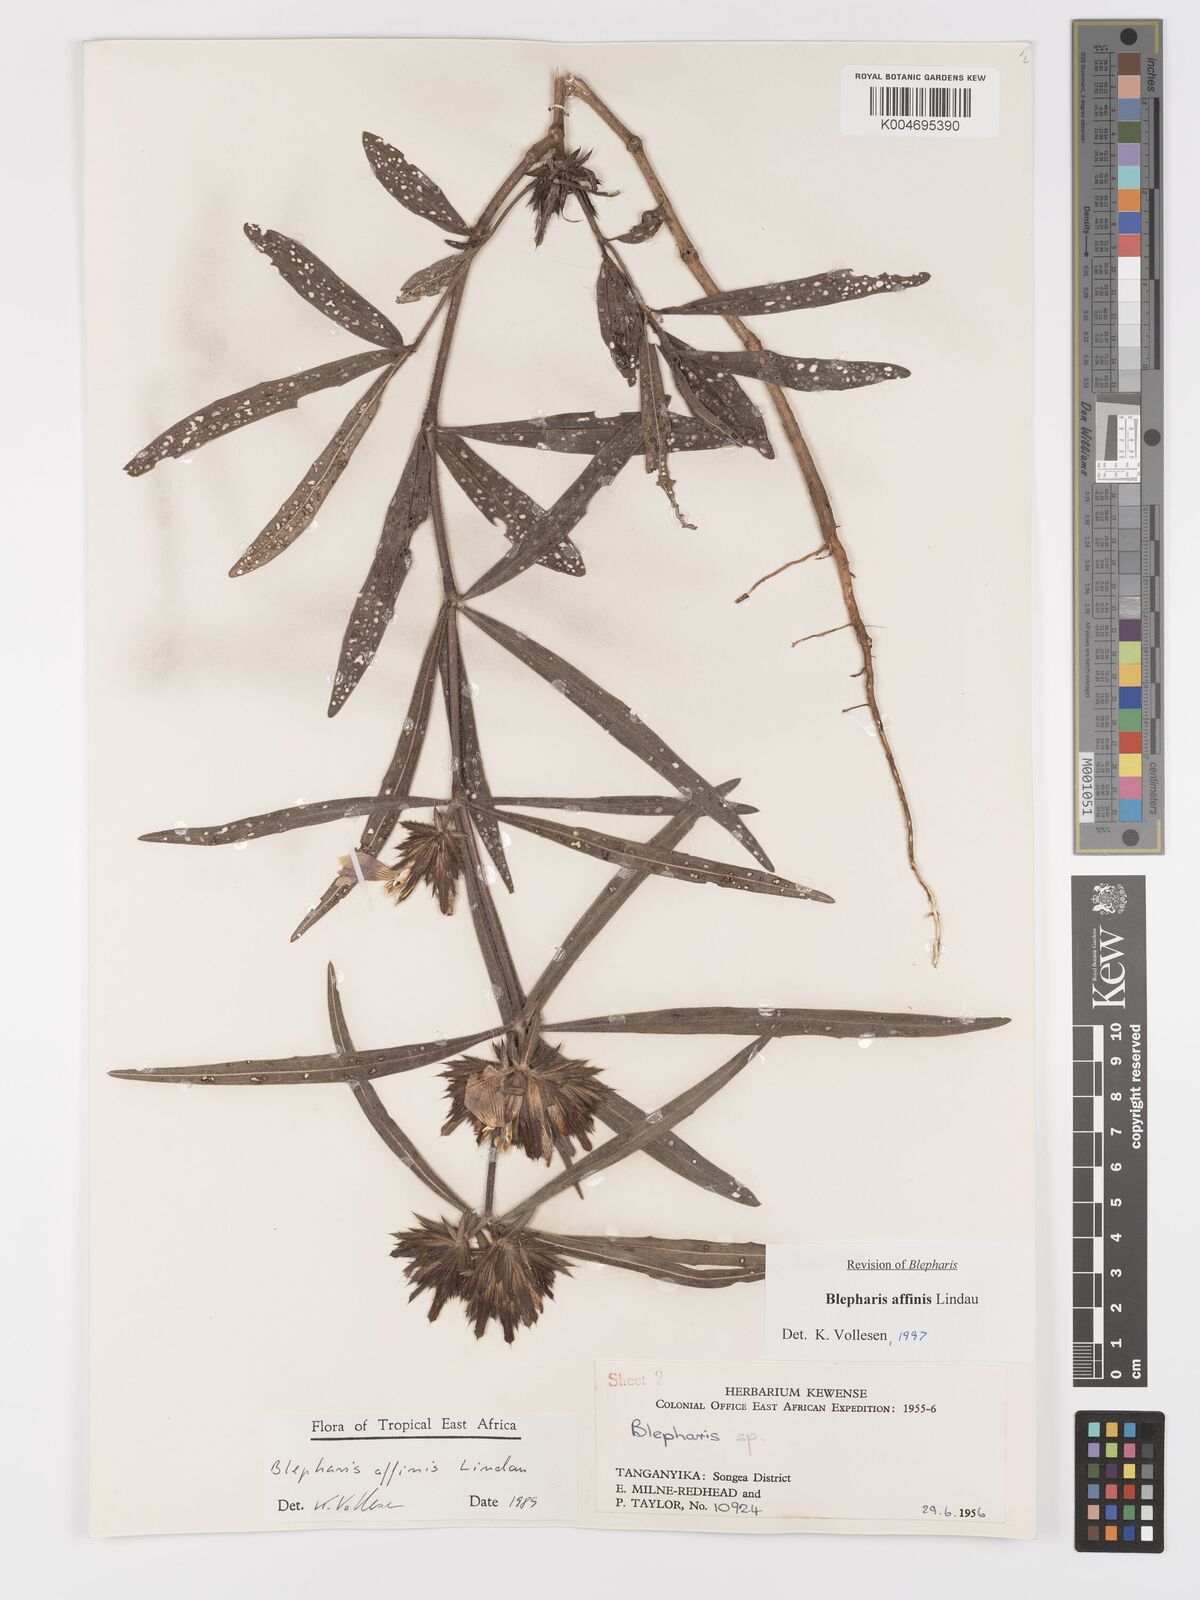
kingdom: Plantae
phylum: Tracheophyta
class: Magnoliopsida
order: Lamiales
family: Acanthaceae
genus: Blepharis
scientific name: Blepharis affinis
